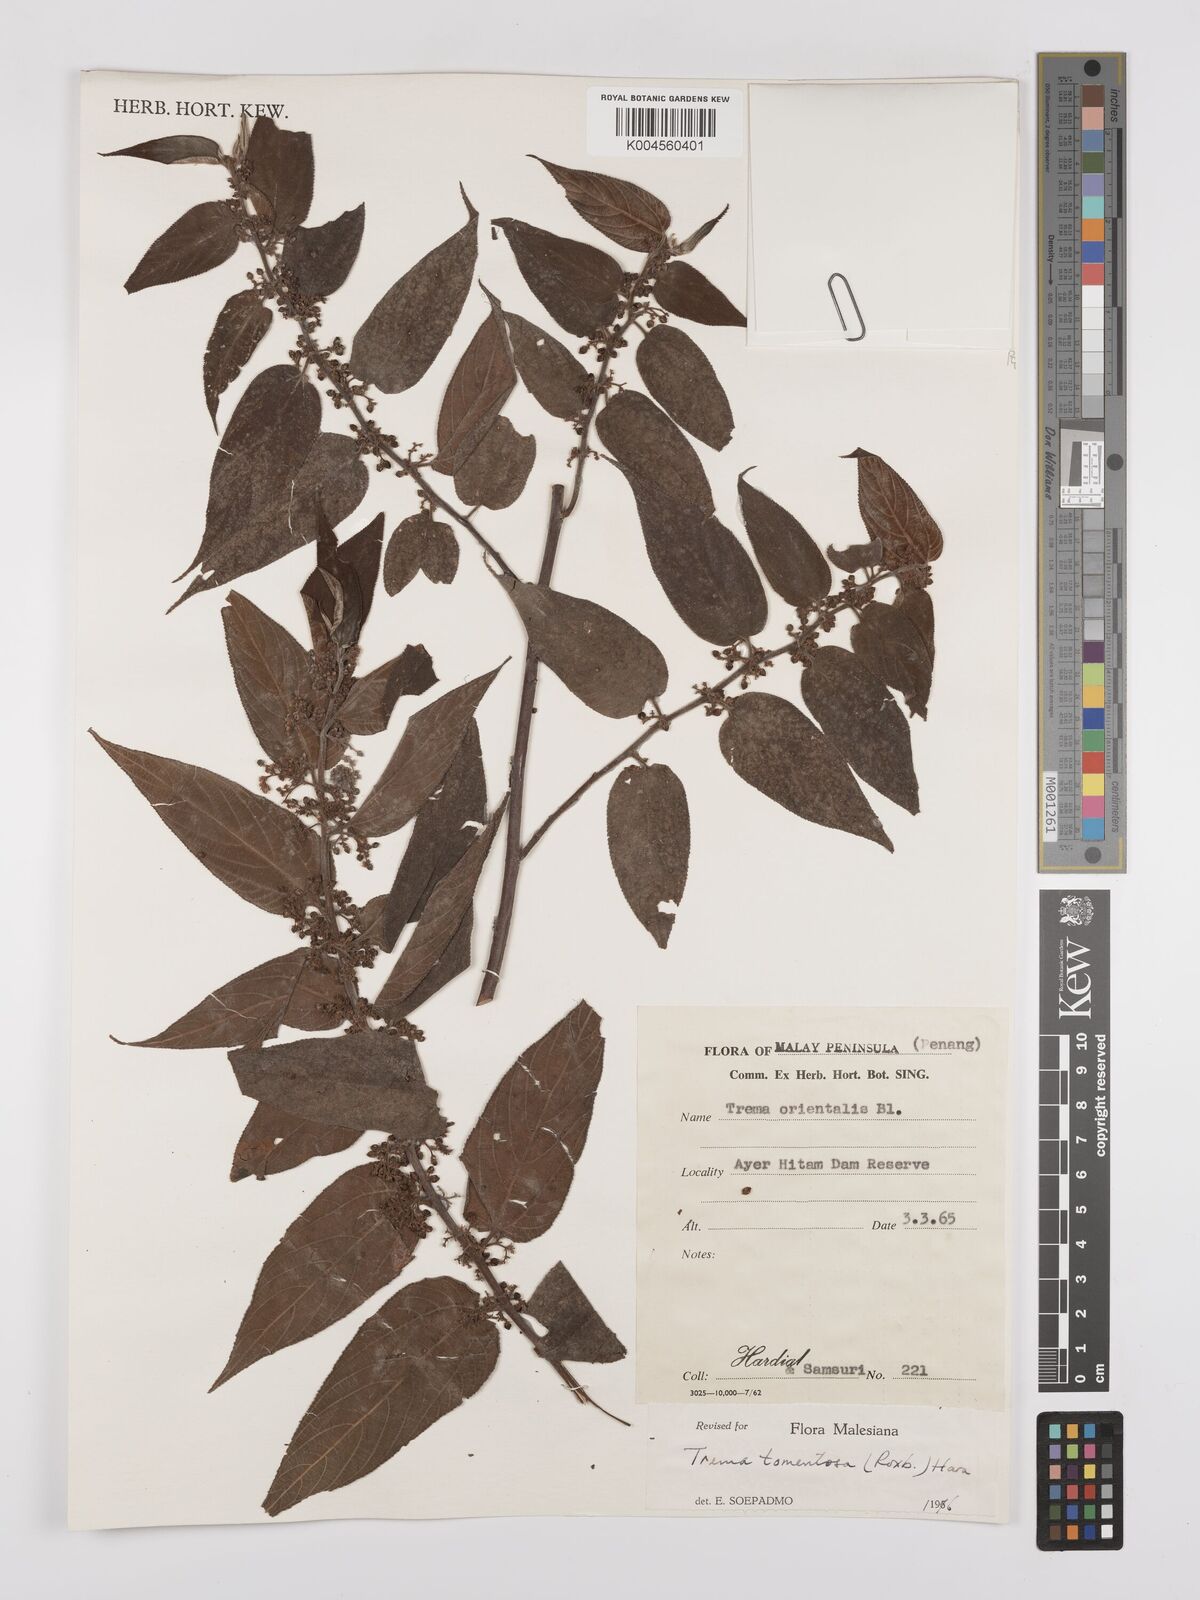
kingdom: Plantae
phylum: Tracheophyta
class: Magnoliopsida
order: Rosales
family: Cannabaceae
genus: Trema
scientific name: Trema tomentosum
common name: Peach-leaf-poisonbush
